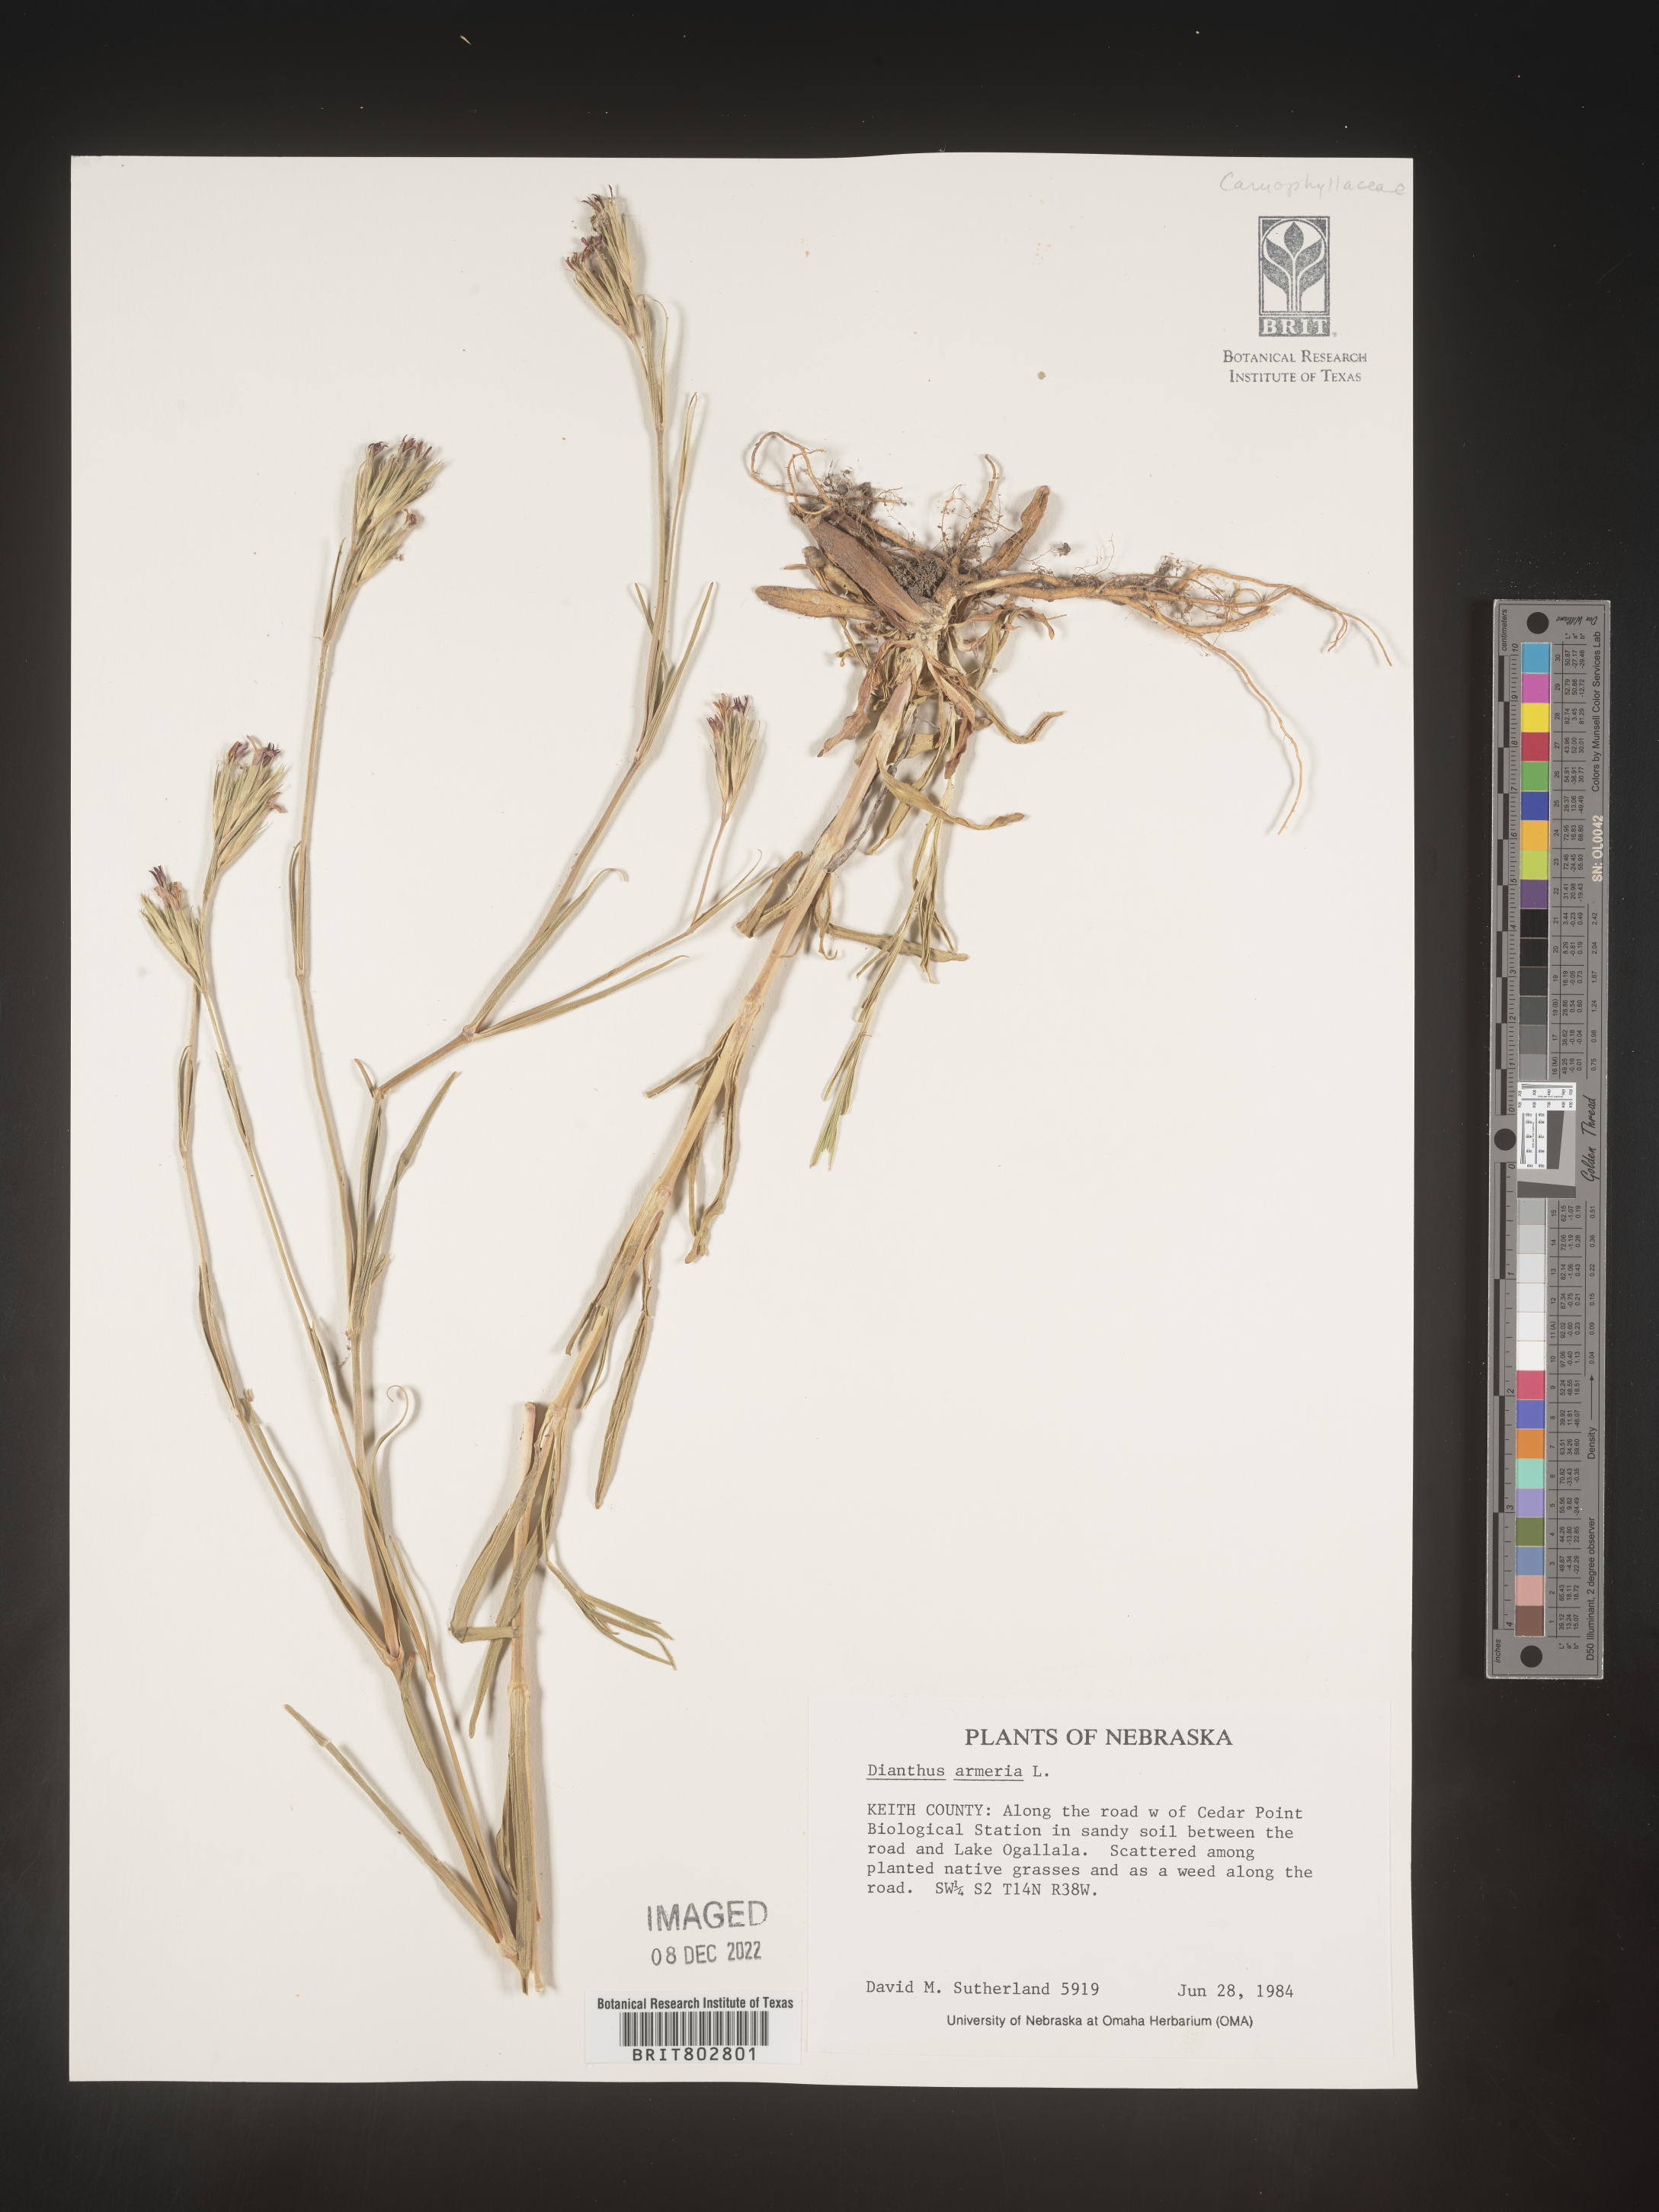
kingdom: Plantae
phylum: Tracheophyta
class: Magnoliopsida
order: Caryophyllales
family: Caryophyllaceae
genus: Dianthus
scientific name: Dianthus armeria
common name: Deptford pink
